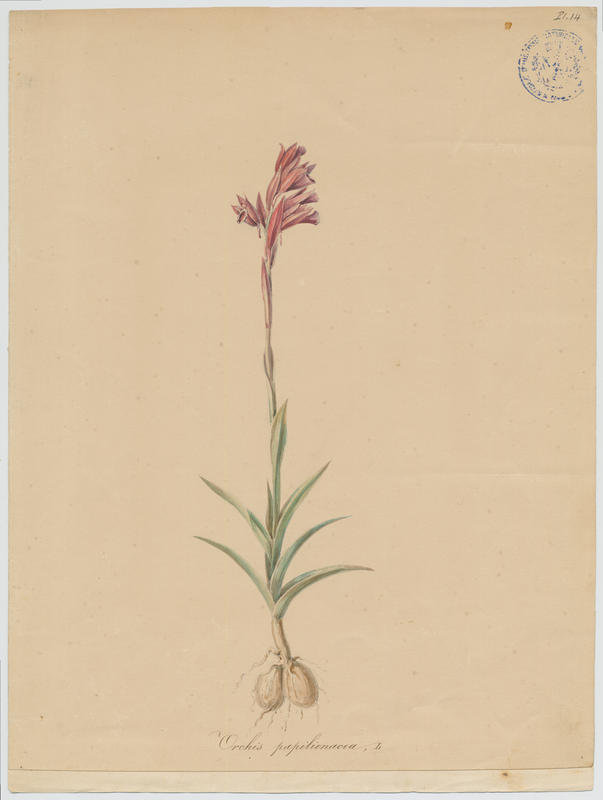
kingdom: Plantae
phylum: Tracheophyta
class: Liliopsida
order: Asparagales
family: Orchidaceae
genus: Anacamptis
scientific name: Anacamptis papilionacea
